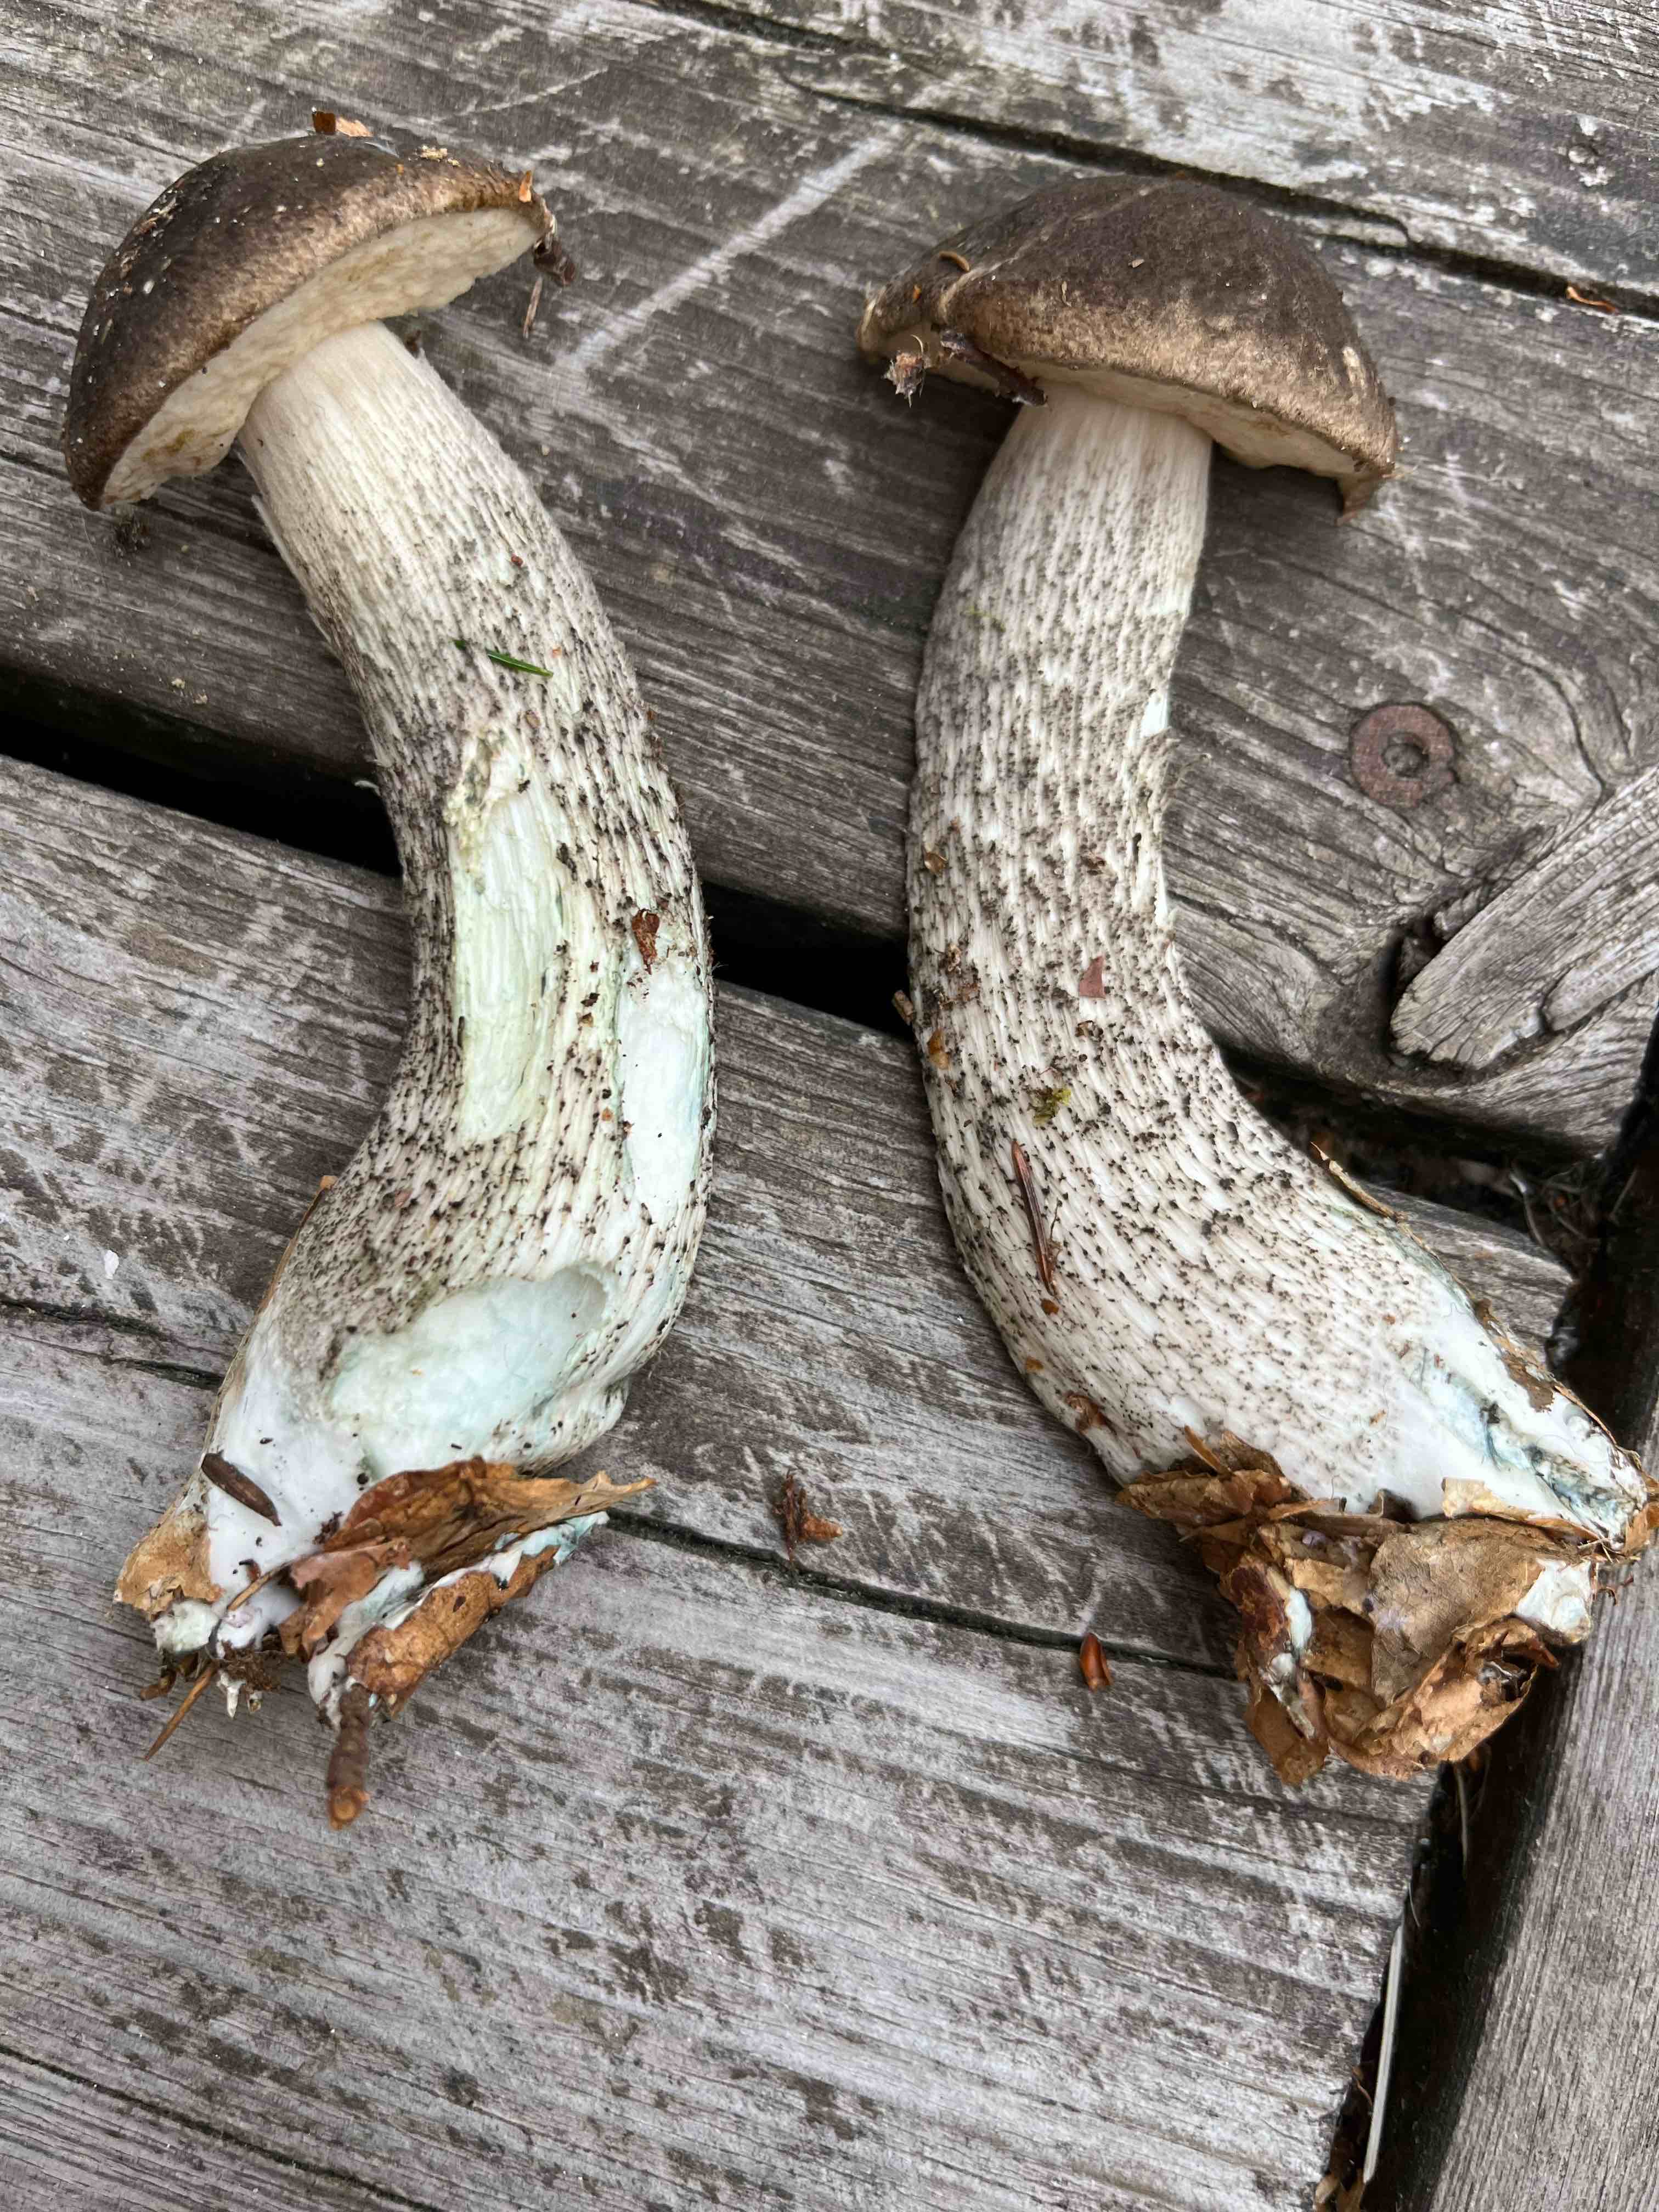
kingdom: Fungi
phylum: Basidiomycota
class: Agaricomycetes
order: Boletales
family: Boletaceae
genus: Leccinum
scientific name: Leccinum variicolor
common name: flammet skælrørhat
